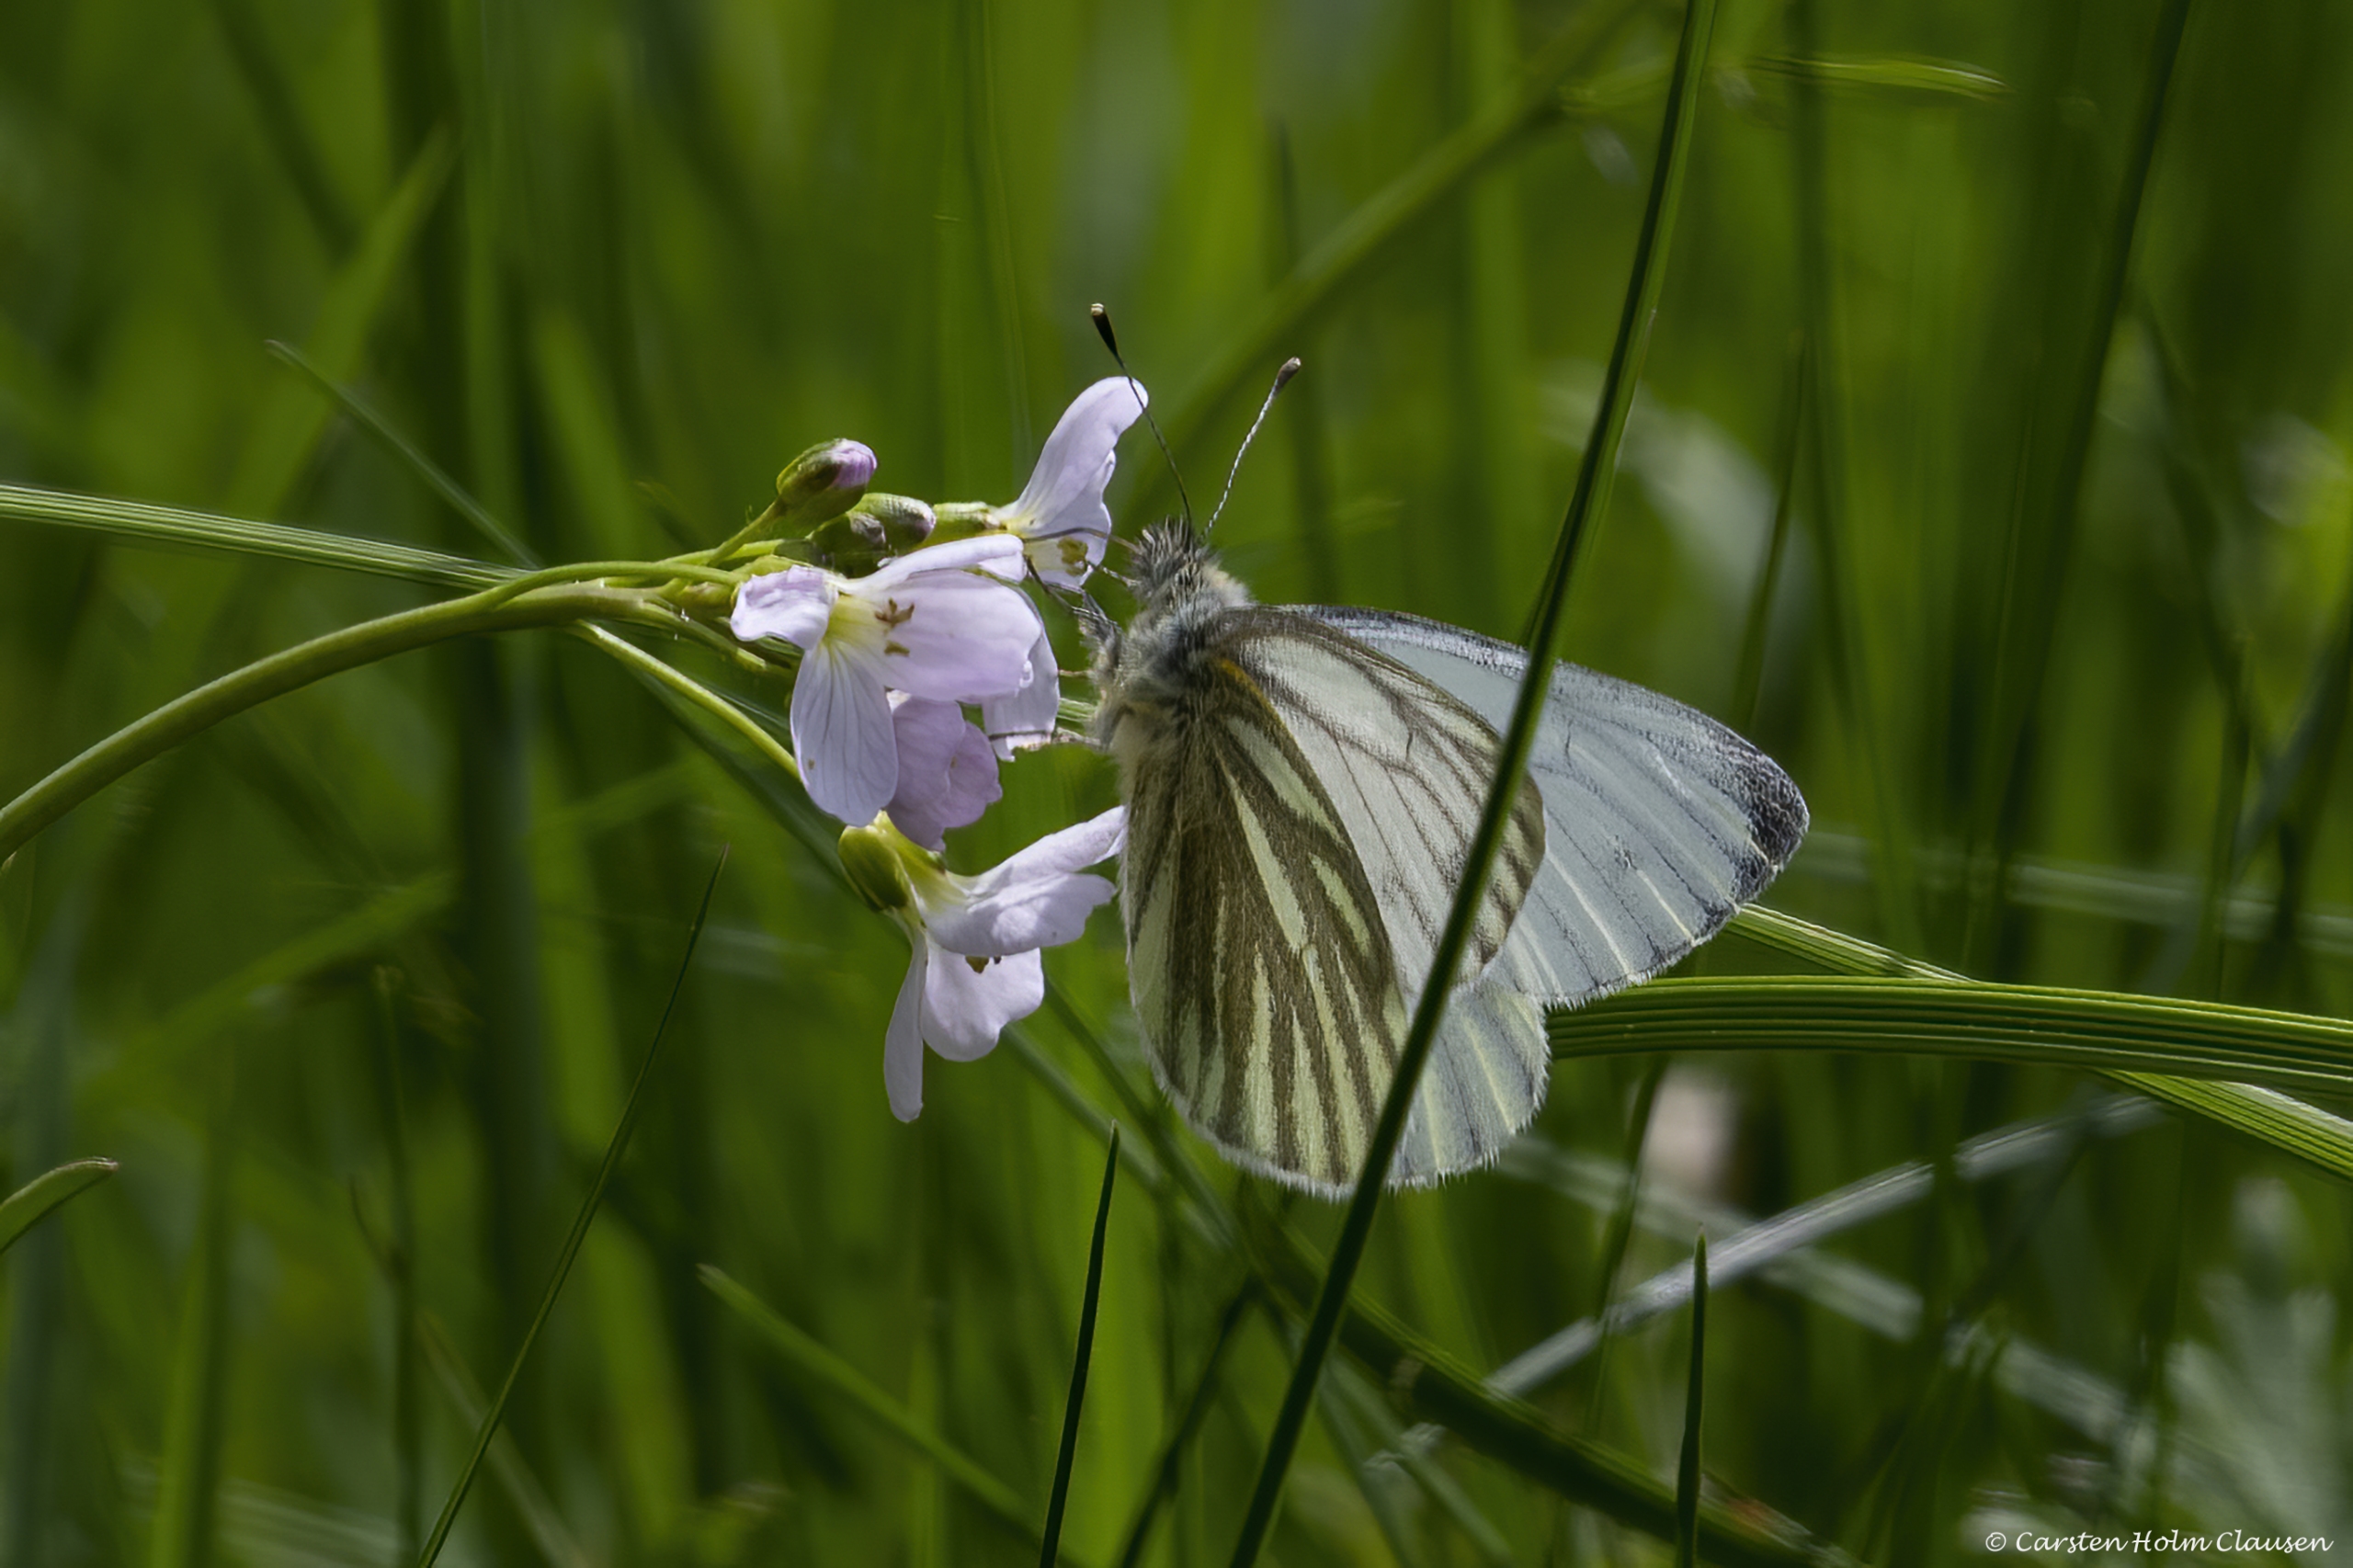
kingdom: Animalia
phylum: Arthropoda
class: Insecta
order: Lepidoptera
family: Pieridae
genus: Pieris
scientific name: Pieris napi
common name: Grønåret kålsommerfugl
